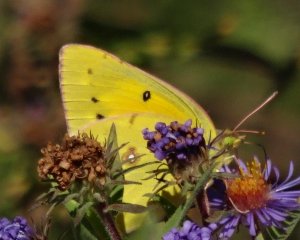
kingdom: Animalia
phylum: Arthropoda
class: Insecta
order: Lepidoptera
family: Pieridae
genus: Colias
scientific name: Colias eurytheme
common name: Orange Sulphur
